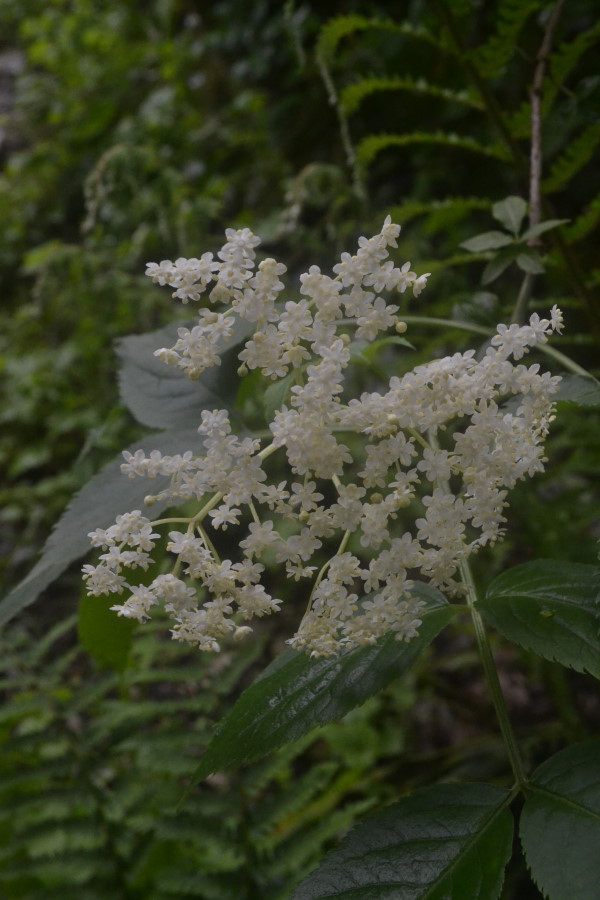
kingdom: Plantae
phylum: Tracheophyta
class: Magnoliopsida
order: Dipsacales
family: Viburnaceae
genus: Sambucus
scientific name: Sambucus nigra
